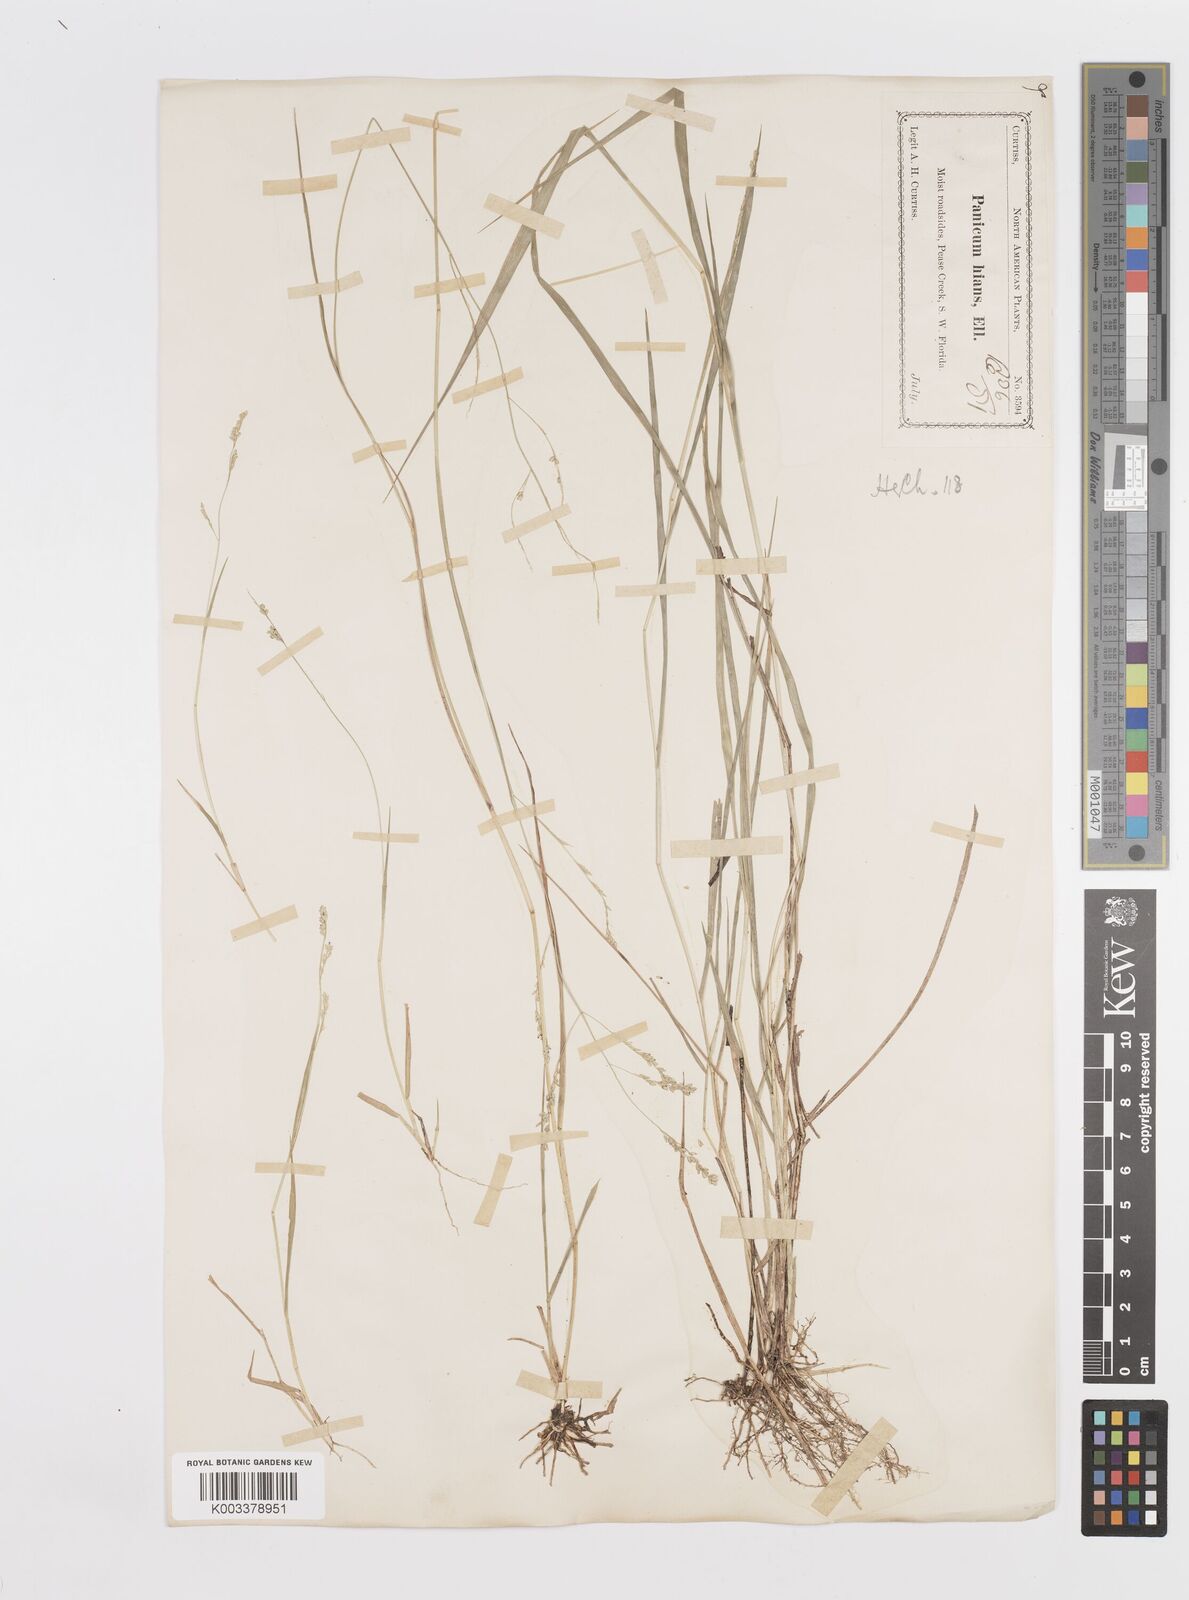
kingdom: Plantae
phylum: Tracheophyta
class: Liliopsida
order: Poales
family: Poaceae
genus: Steinchisma
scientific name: Steinchisma hians
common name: Gaping panic grass
